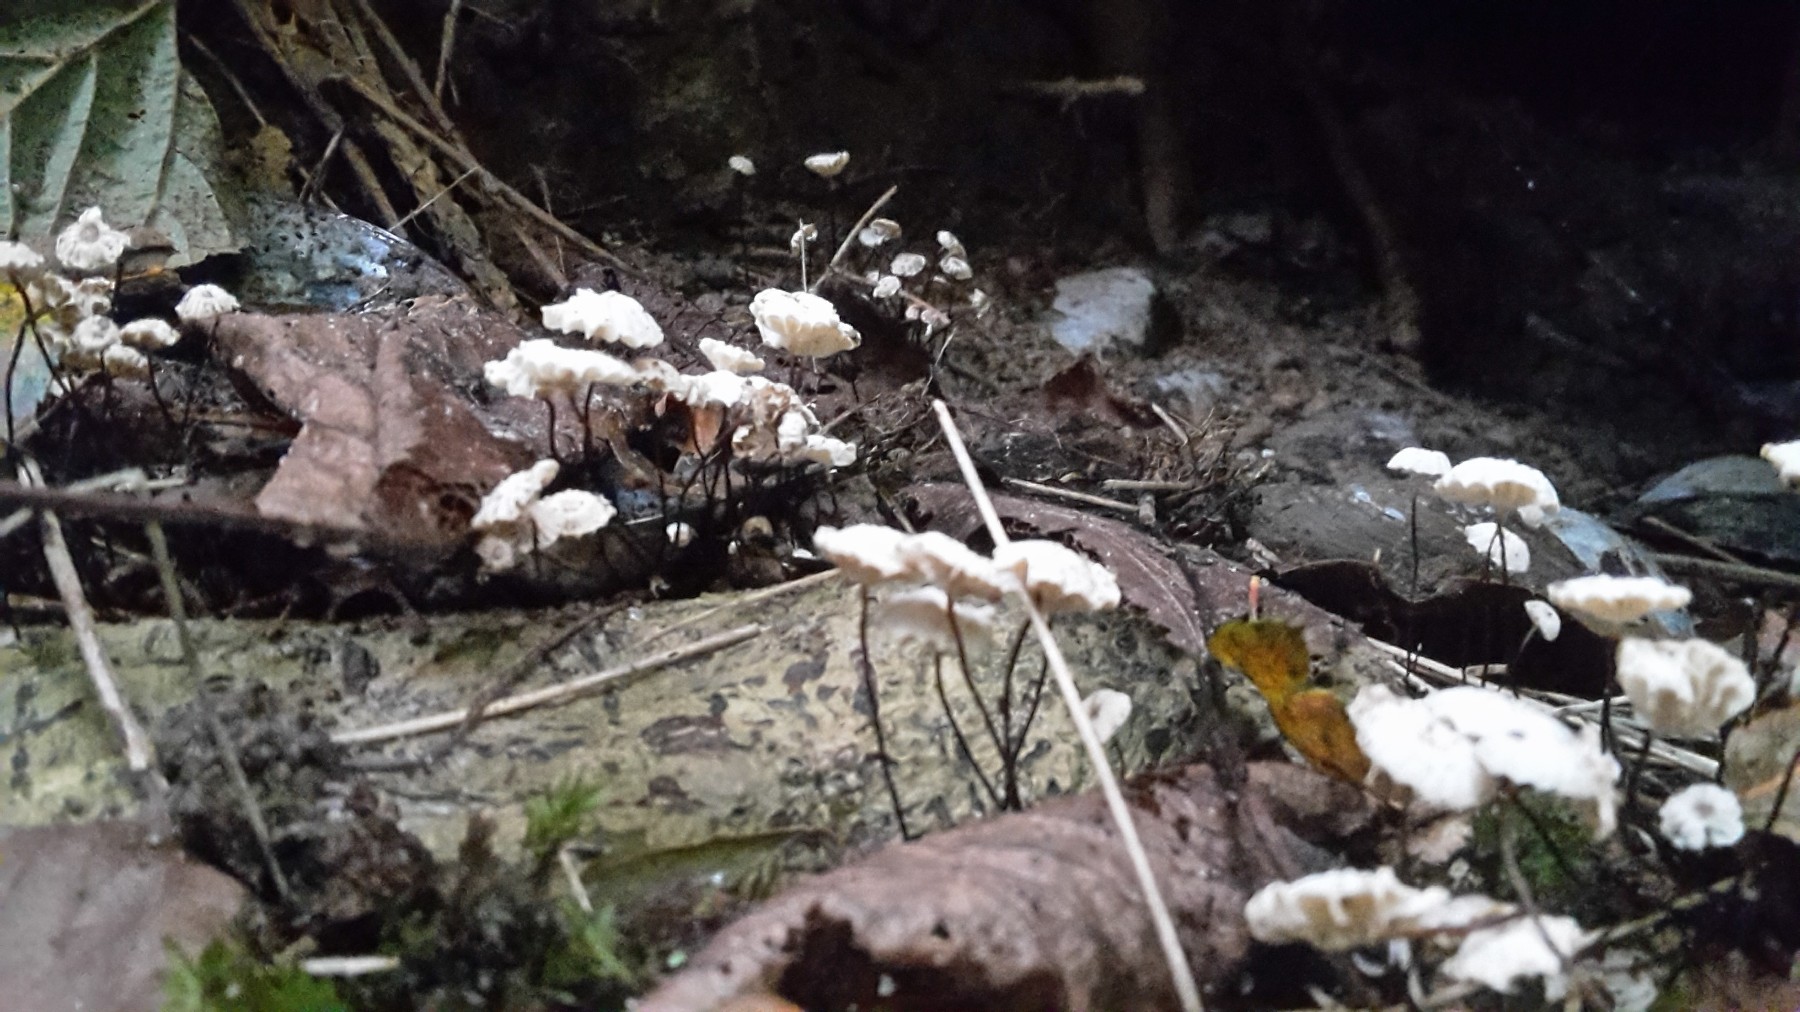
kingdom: Fungi
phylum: Basidiomycota
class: Agaricomycetes
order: Agaricales
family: Marasmiaceae
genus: Marasmius
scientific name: Marasmius rotula
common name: hjul-bruskhat
